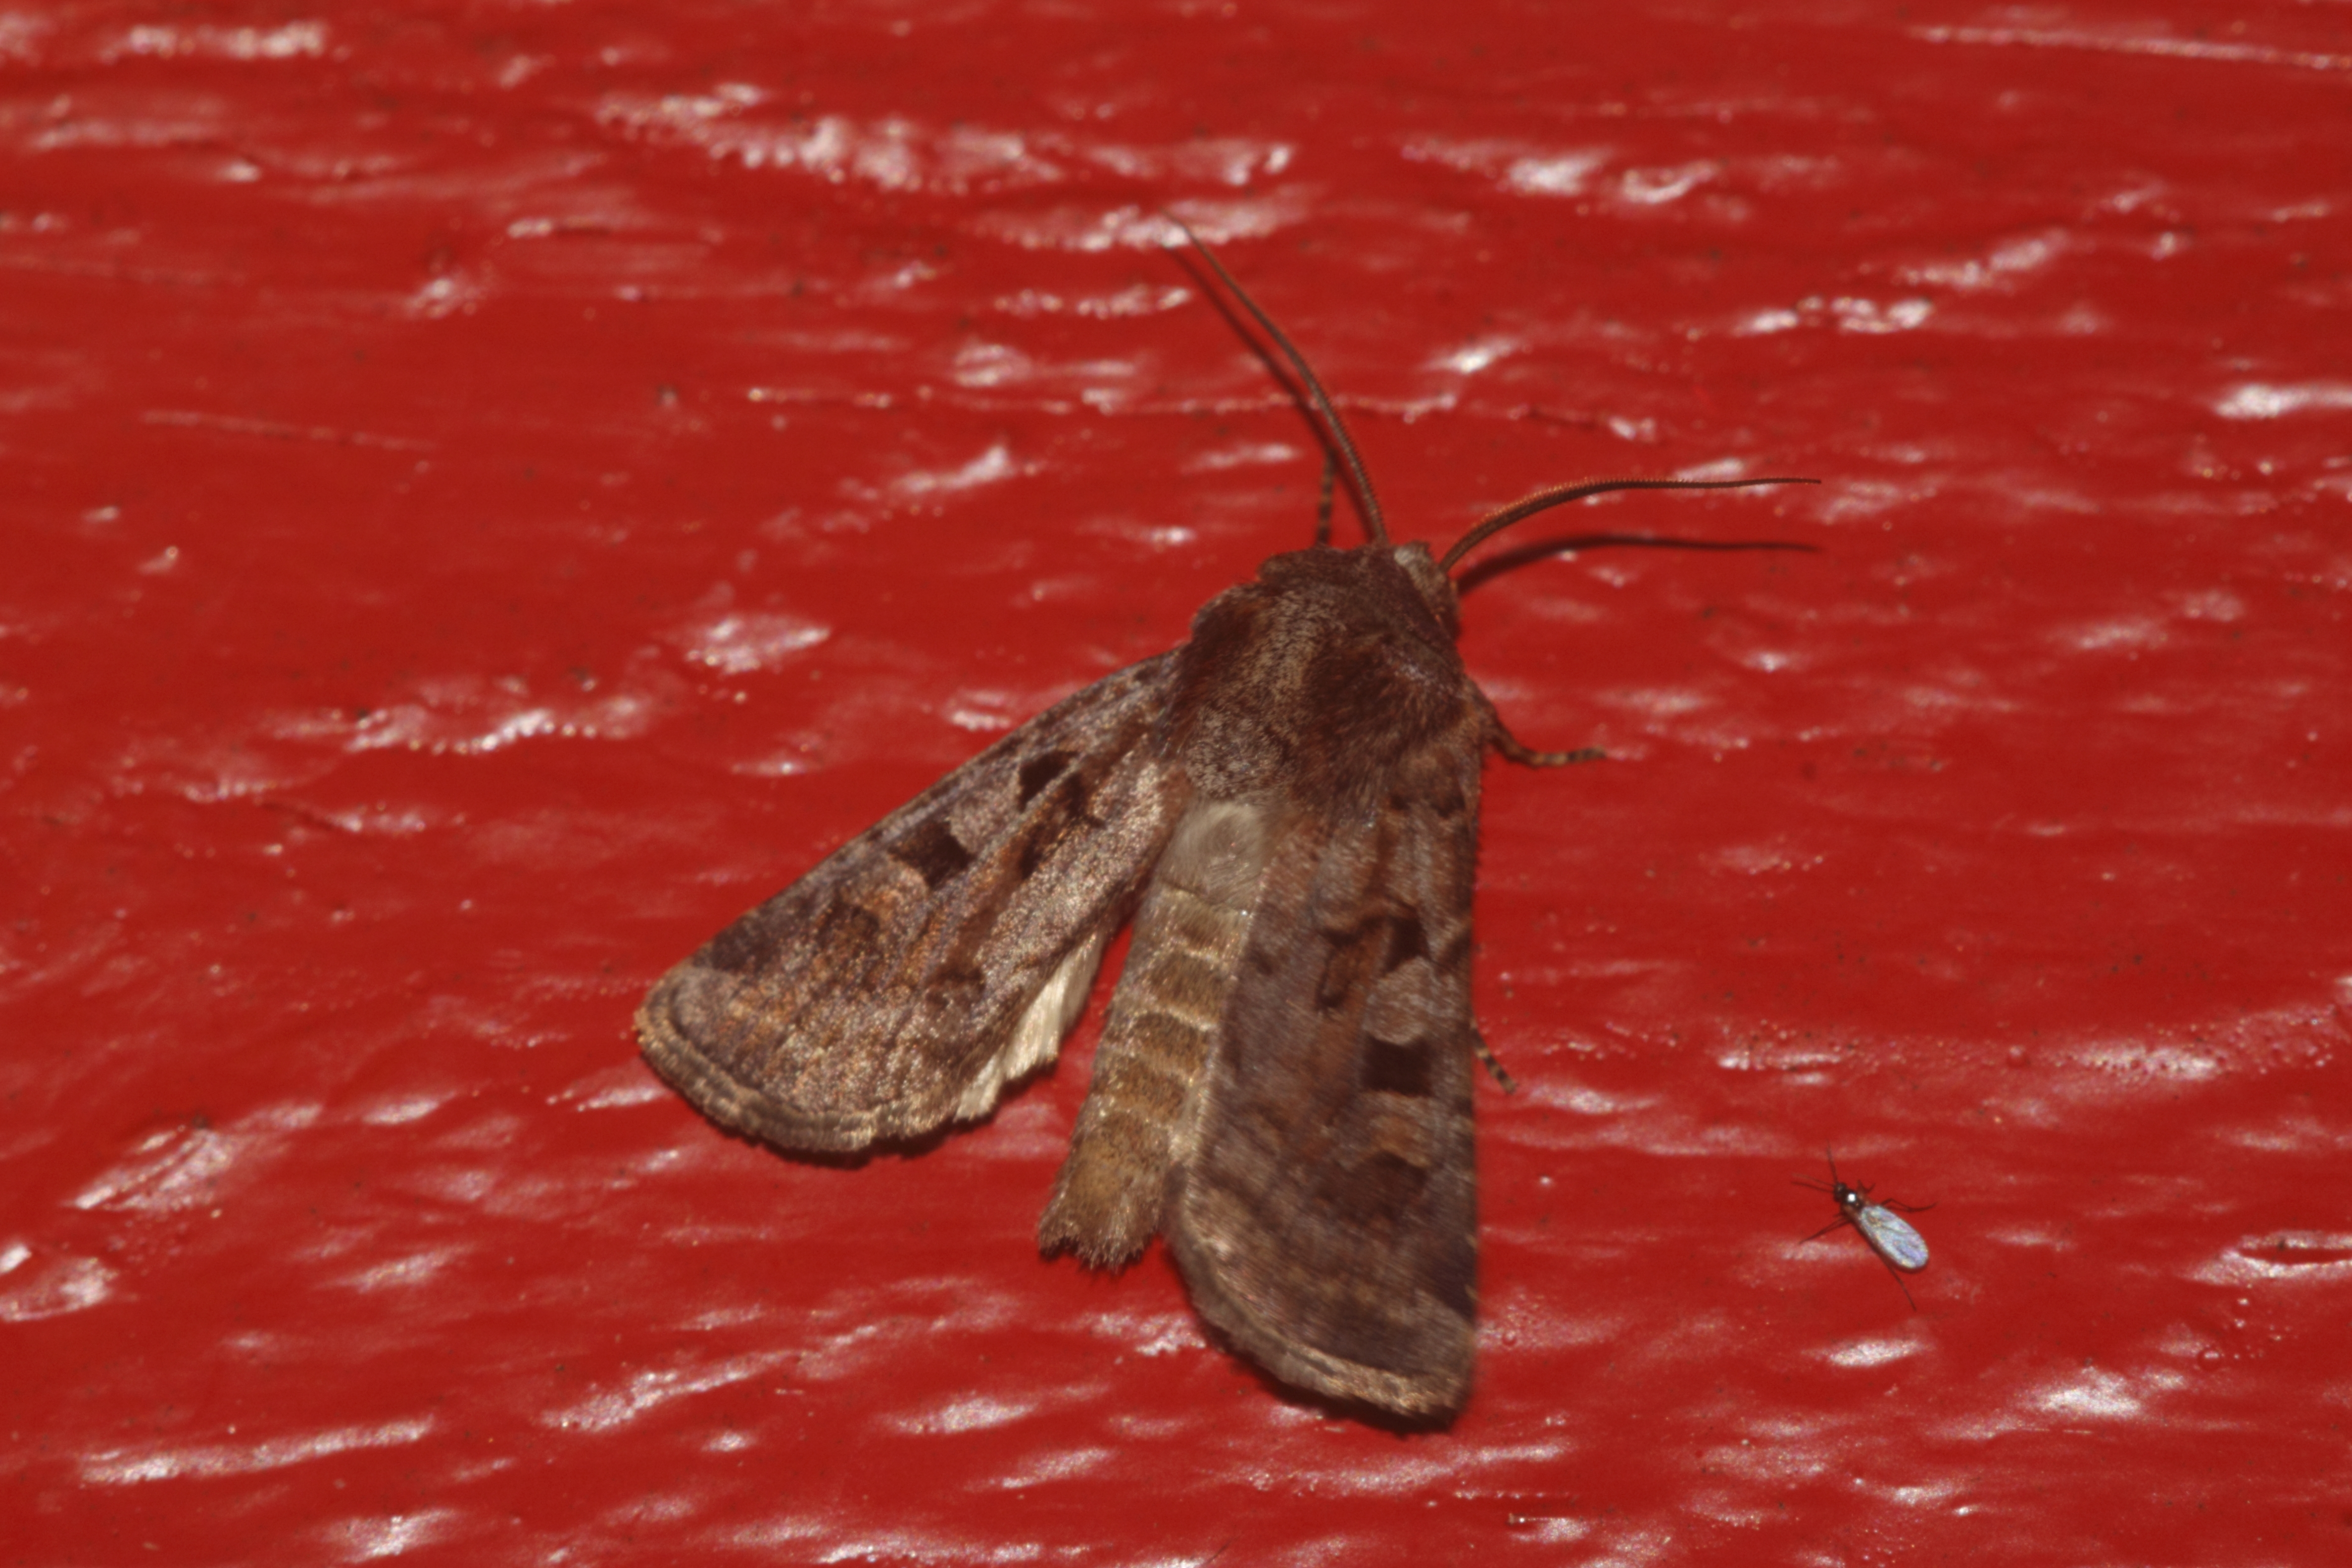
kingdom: Animalia
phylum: Arthropoda
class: Insecta
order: Lepidoptera
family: Noctuidae
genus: Euxoa
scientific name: Euxoa recussa
